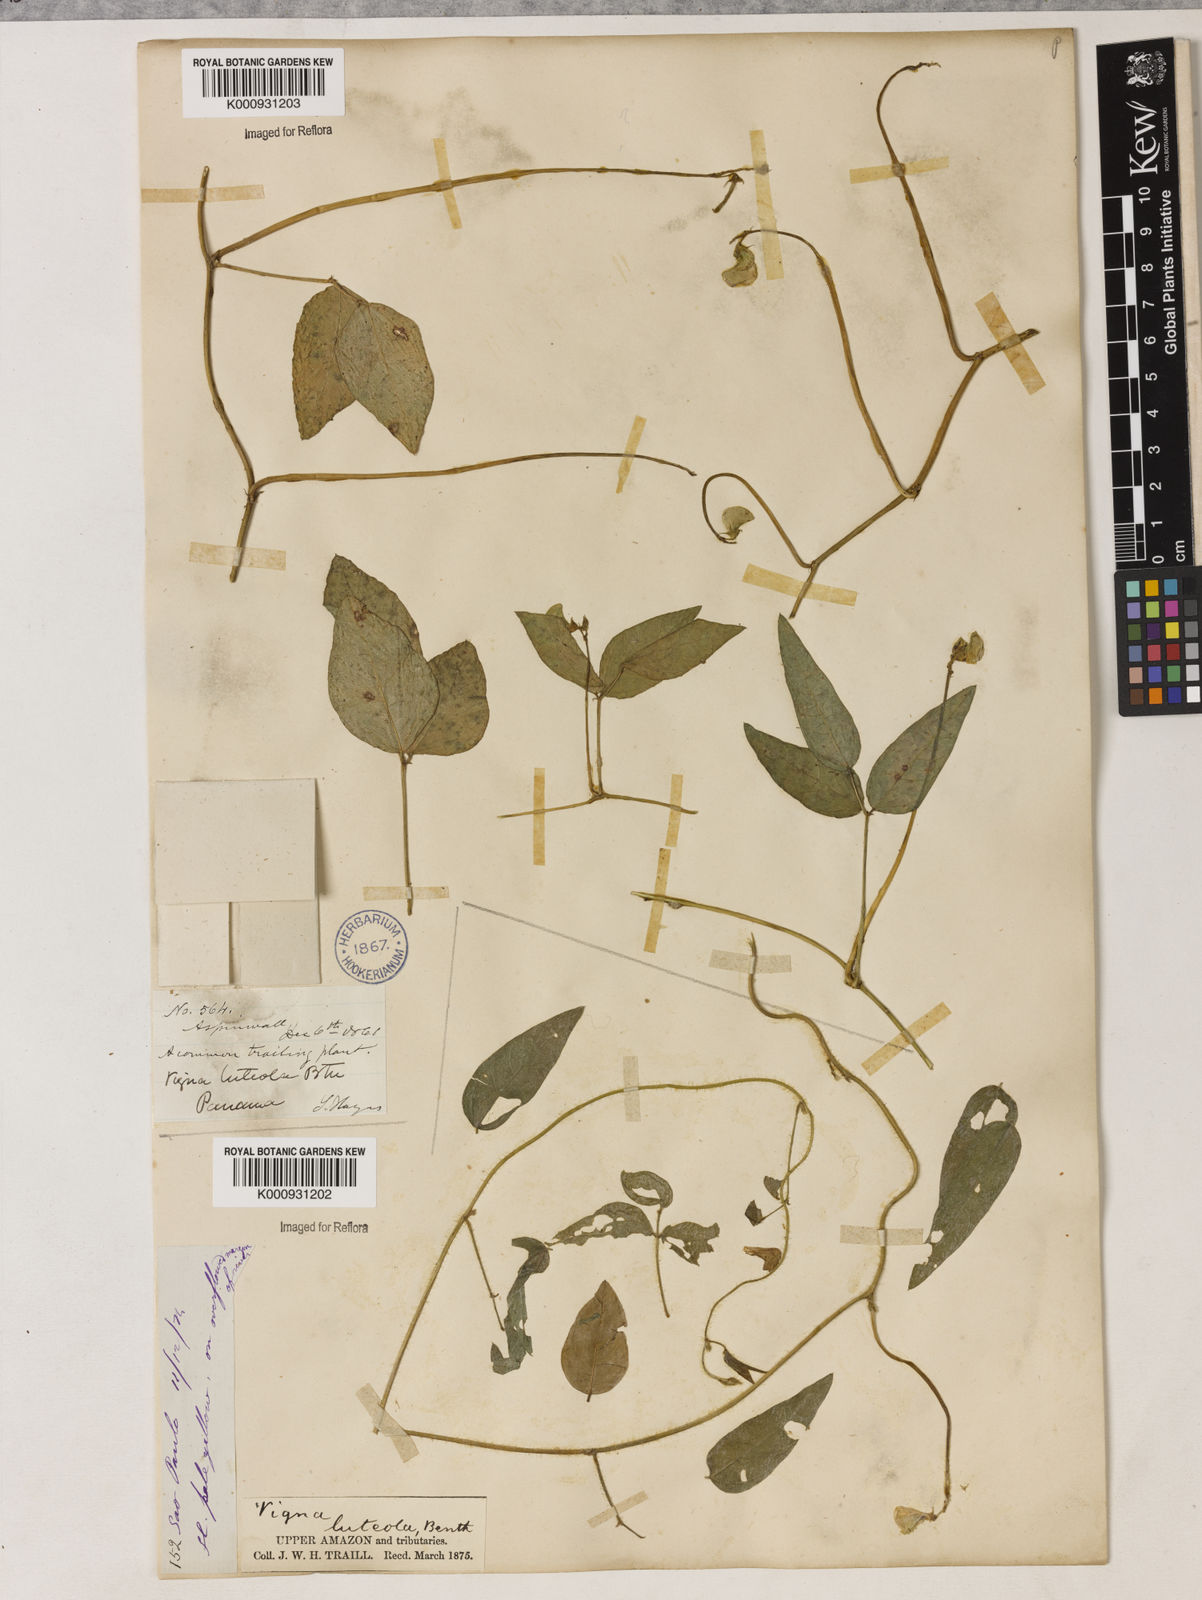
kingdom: Plantae
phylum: Tracheophyta
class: Magnoliopsida
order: Fabales
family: Fabaceae
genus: Vigna
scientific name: Vigna luteola
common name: Hairypod cowpea
